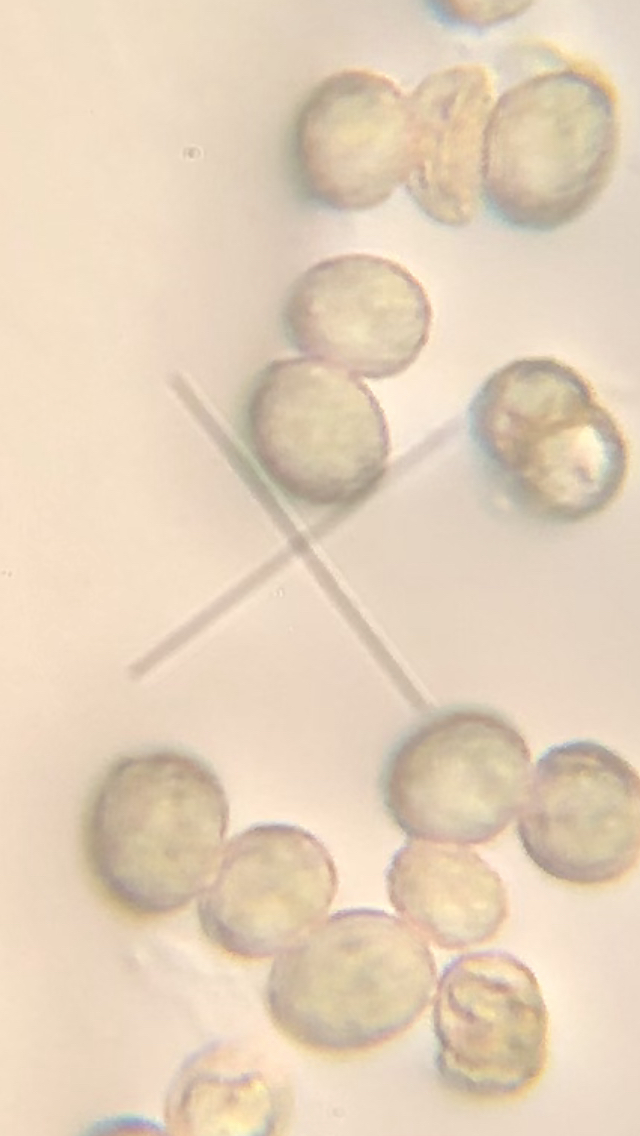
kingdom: Fungi
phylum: Basidiomycota
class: Agaricomycetes
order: Agaricales
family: Crepidotaceae
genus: Crepidotus
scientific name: Crepidotus cesatii
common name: almindelig muslingesvamp
